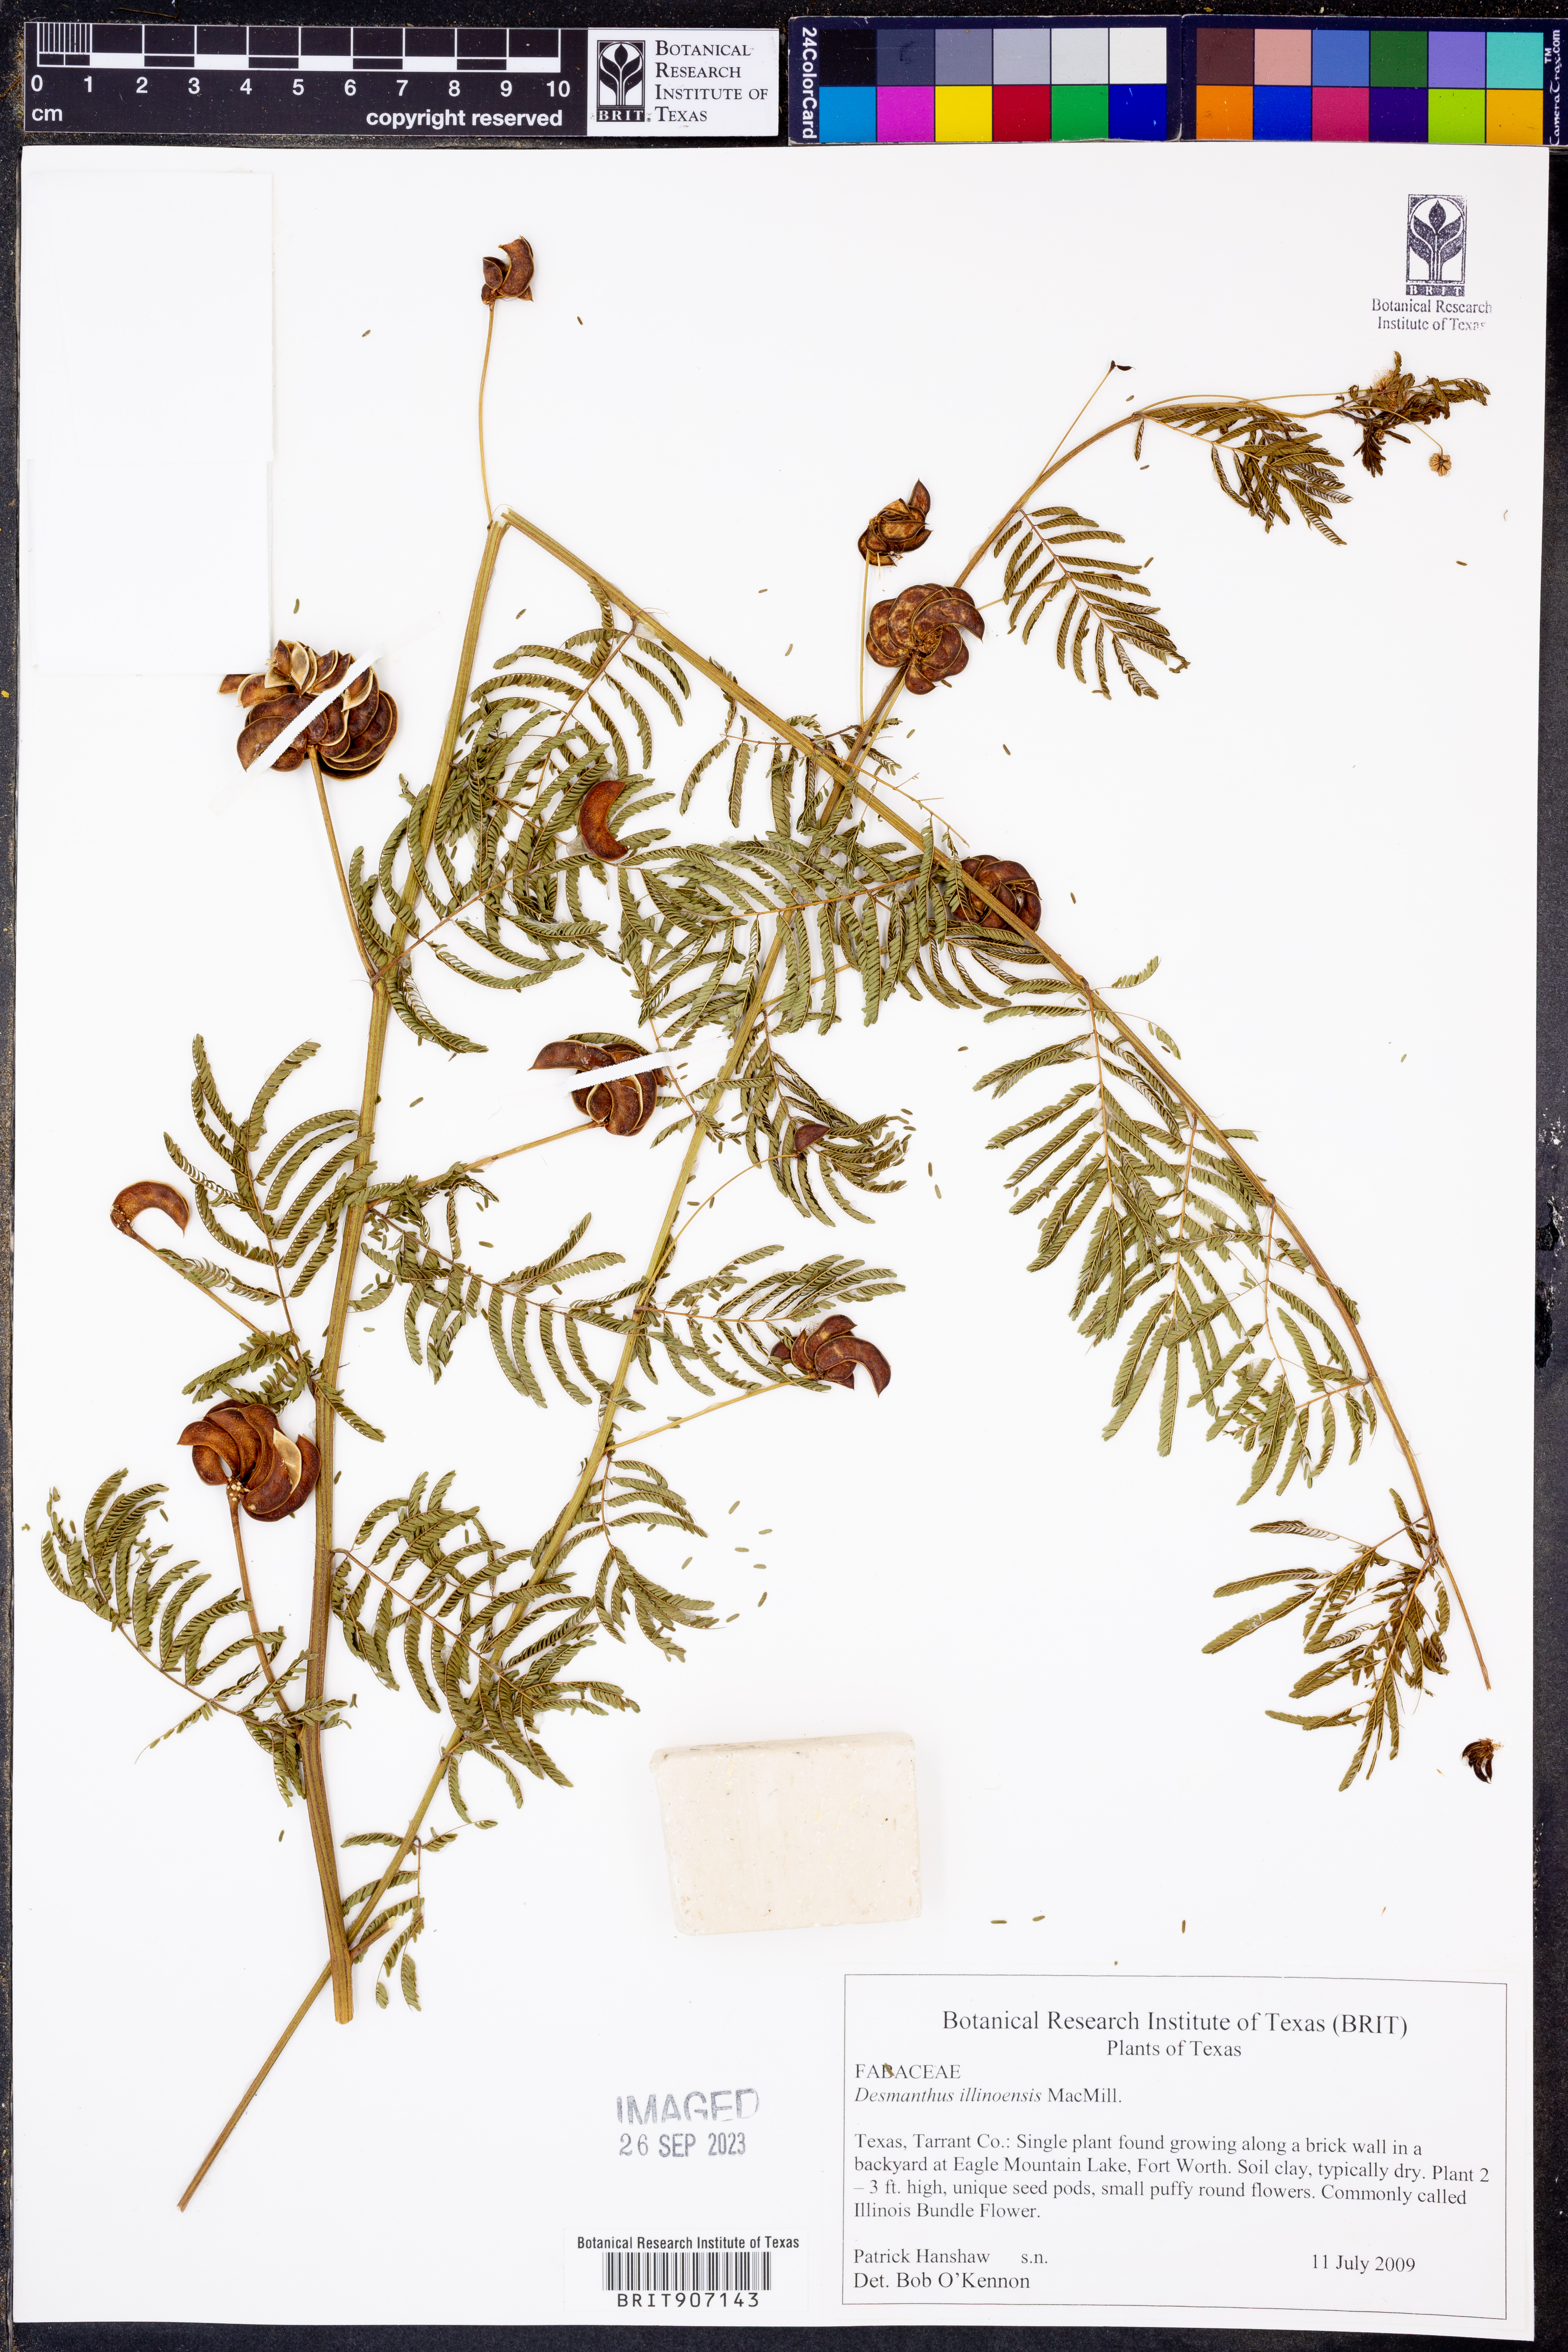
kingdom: Plantae
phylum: Tracheophyta
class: Magnoliopsida
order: Fabales
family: Fabaceae
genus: Desmanthus
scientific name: Desmanthus illinoensis
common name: Illinois bundle-flower
